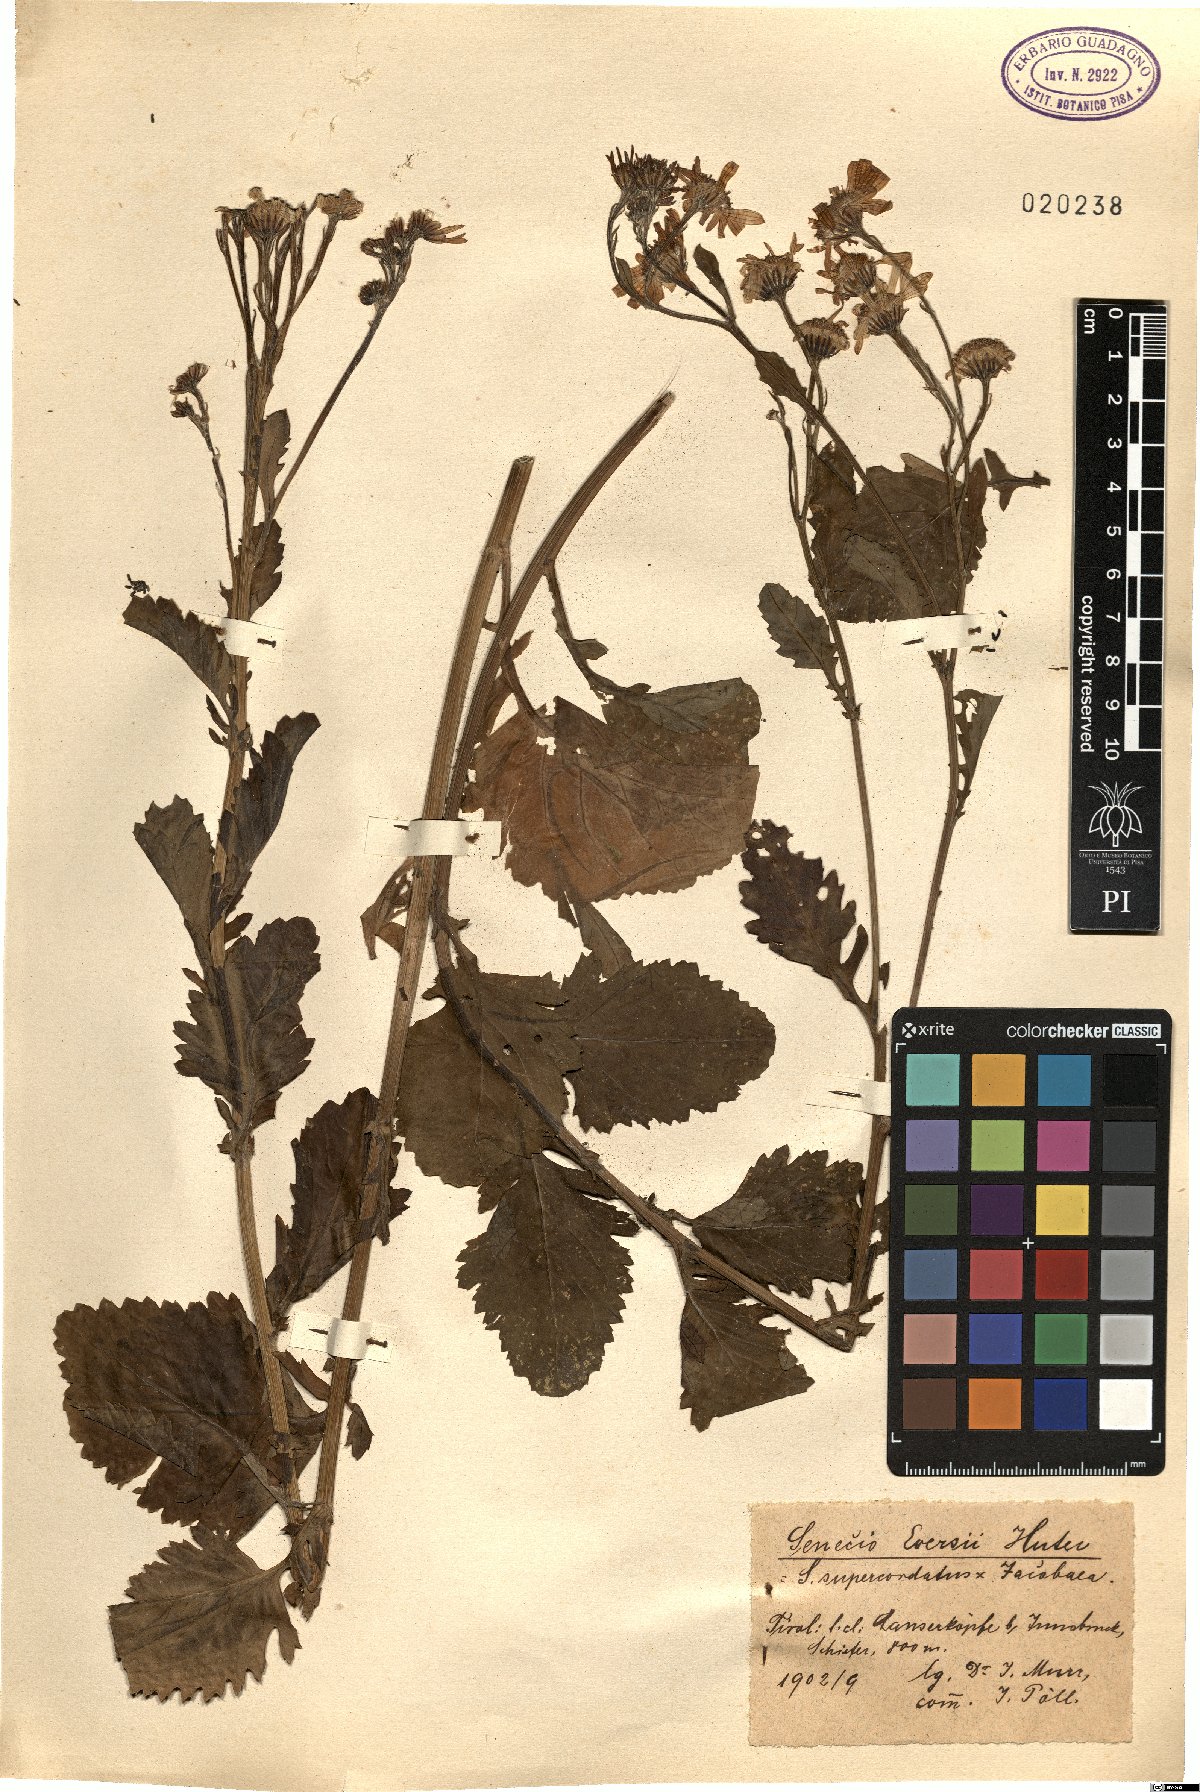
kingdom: Plantae
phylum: Tracheophyta
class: Magnoliopsida
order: Asterales
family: Asteraceae
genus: Jacobaea
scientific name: Jacobaea reisachii
